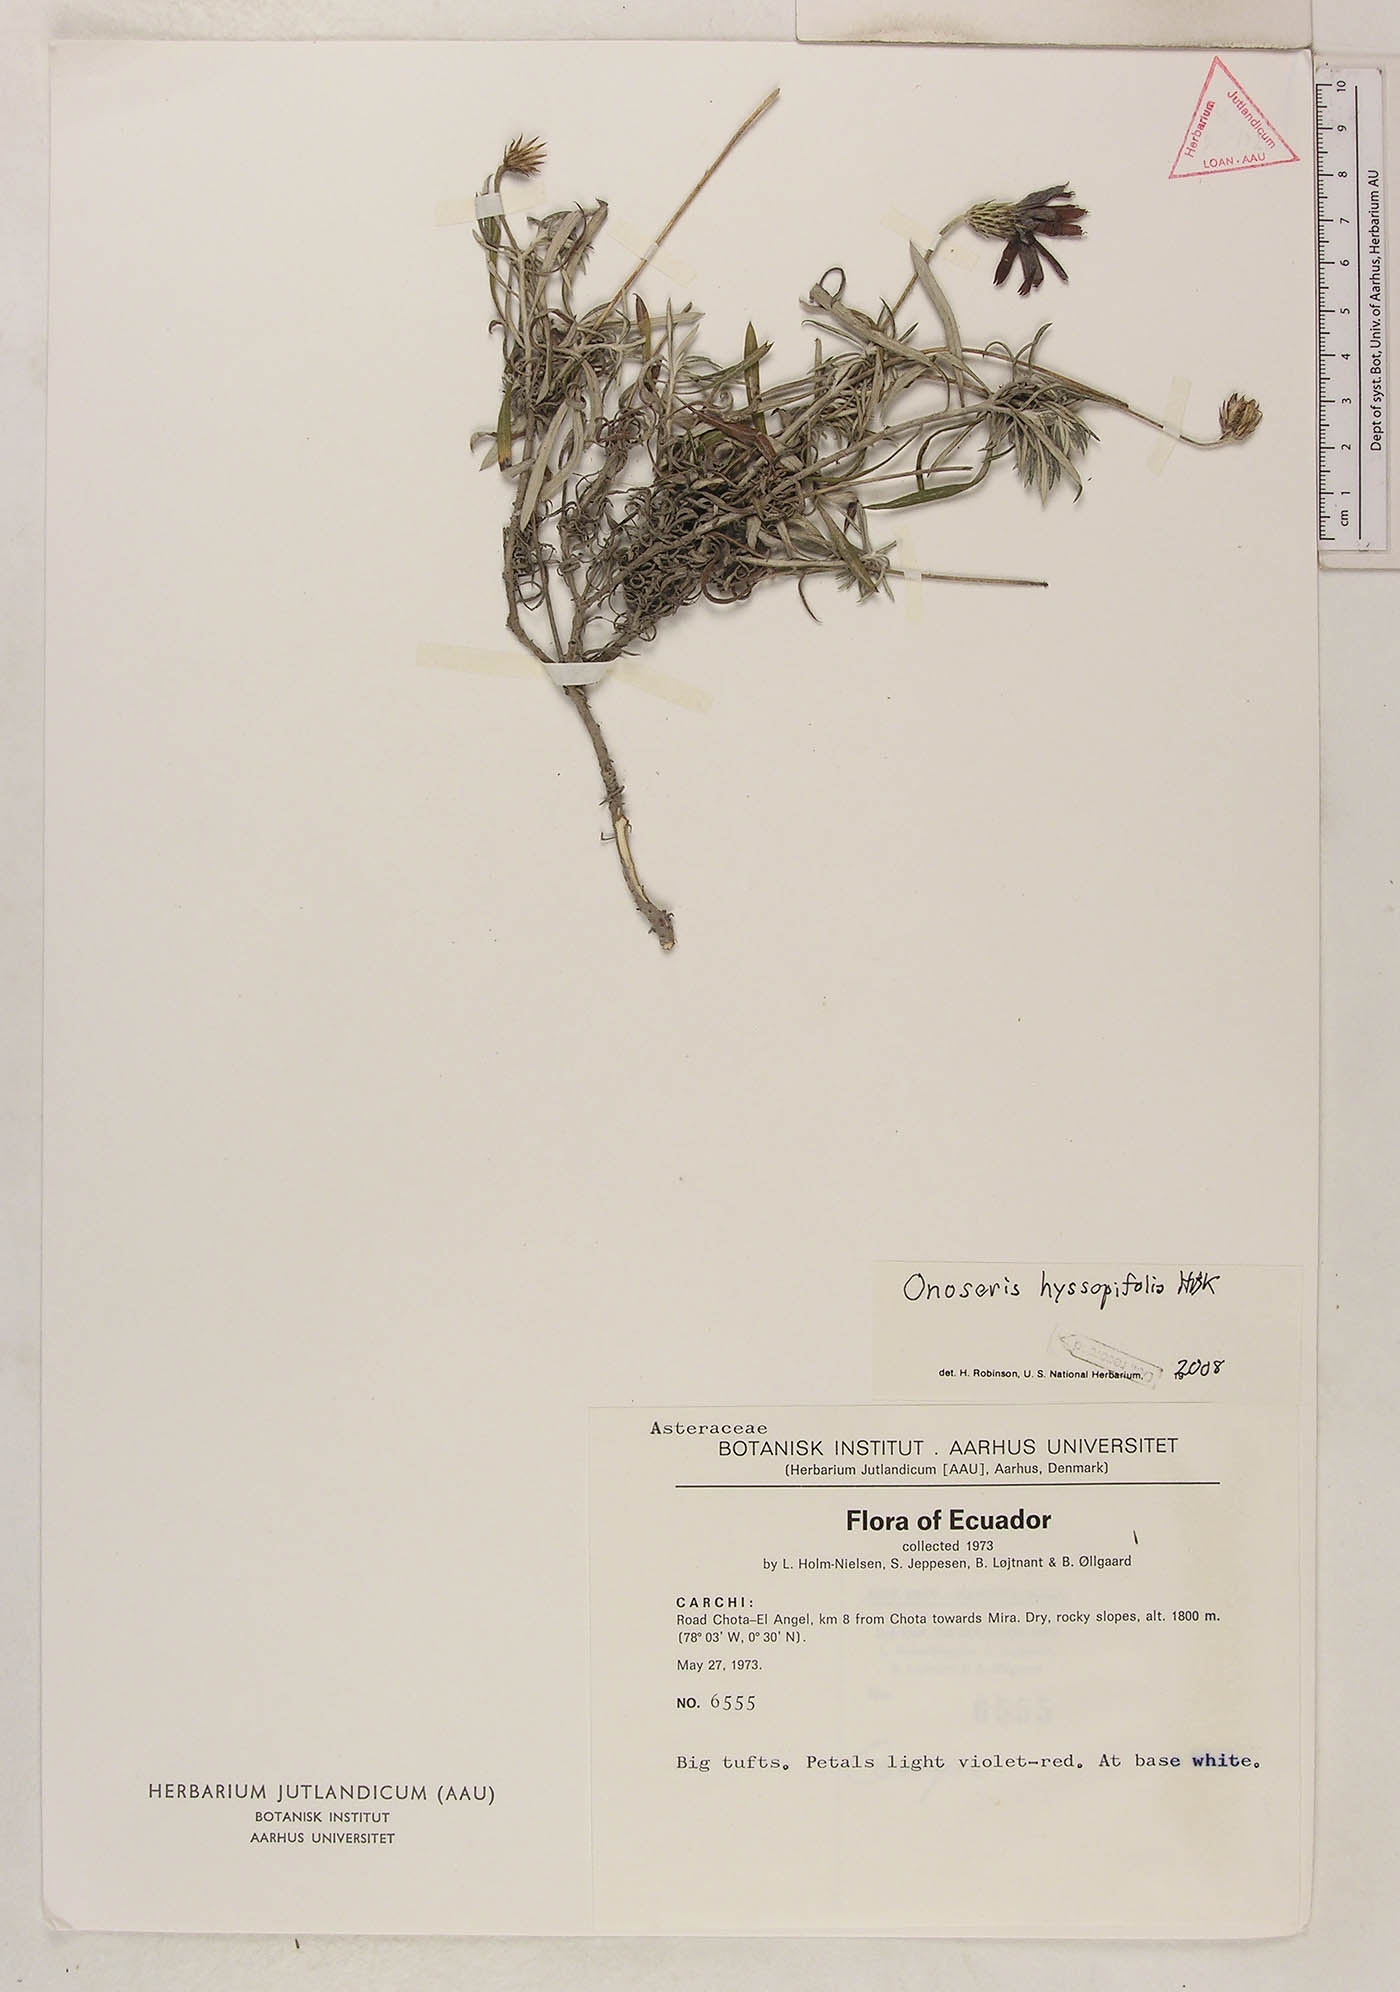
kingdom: Plantae
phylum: Tracheophyta
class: Magnoliopsida
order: Asterales
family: Asteraceae
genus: Onoseris
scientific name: Onoseris hyssopifolia
